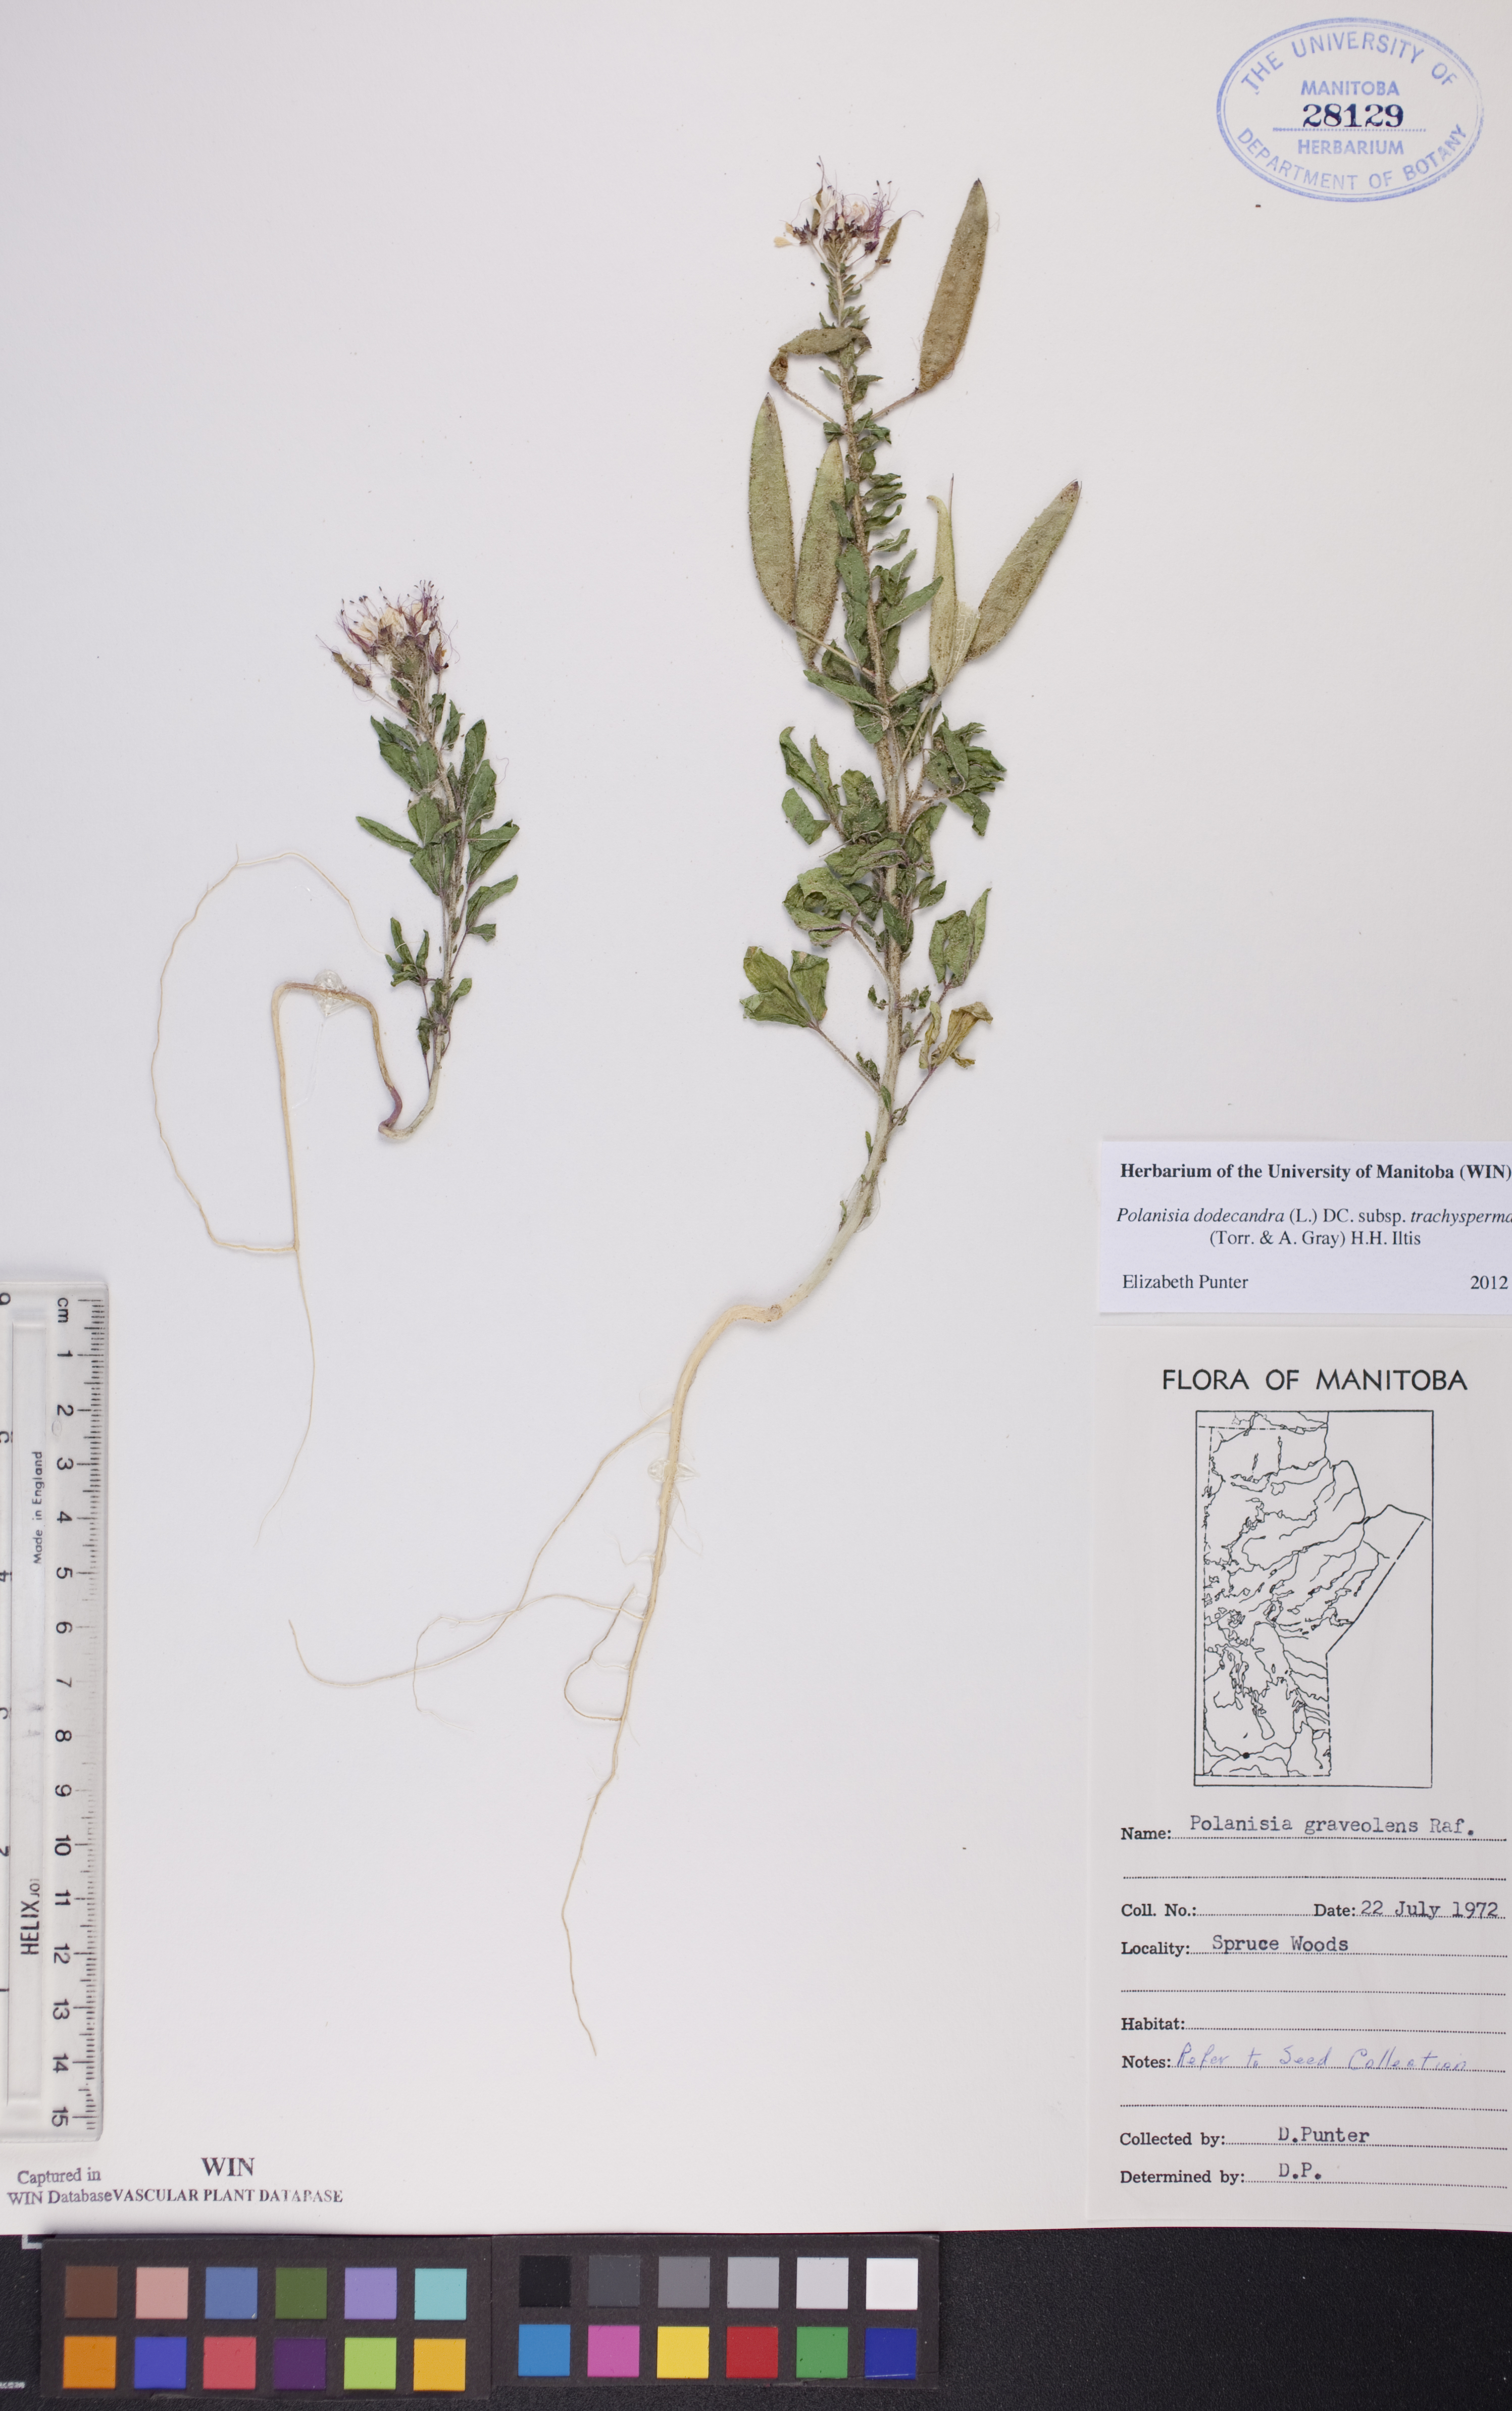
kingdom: Plantae
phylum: Tracheophyta
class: Magnoliopsida
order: Brassicales
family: Cleomaceae
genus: Polanisia
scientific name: Polanisia trachysperma
